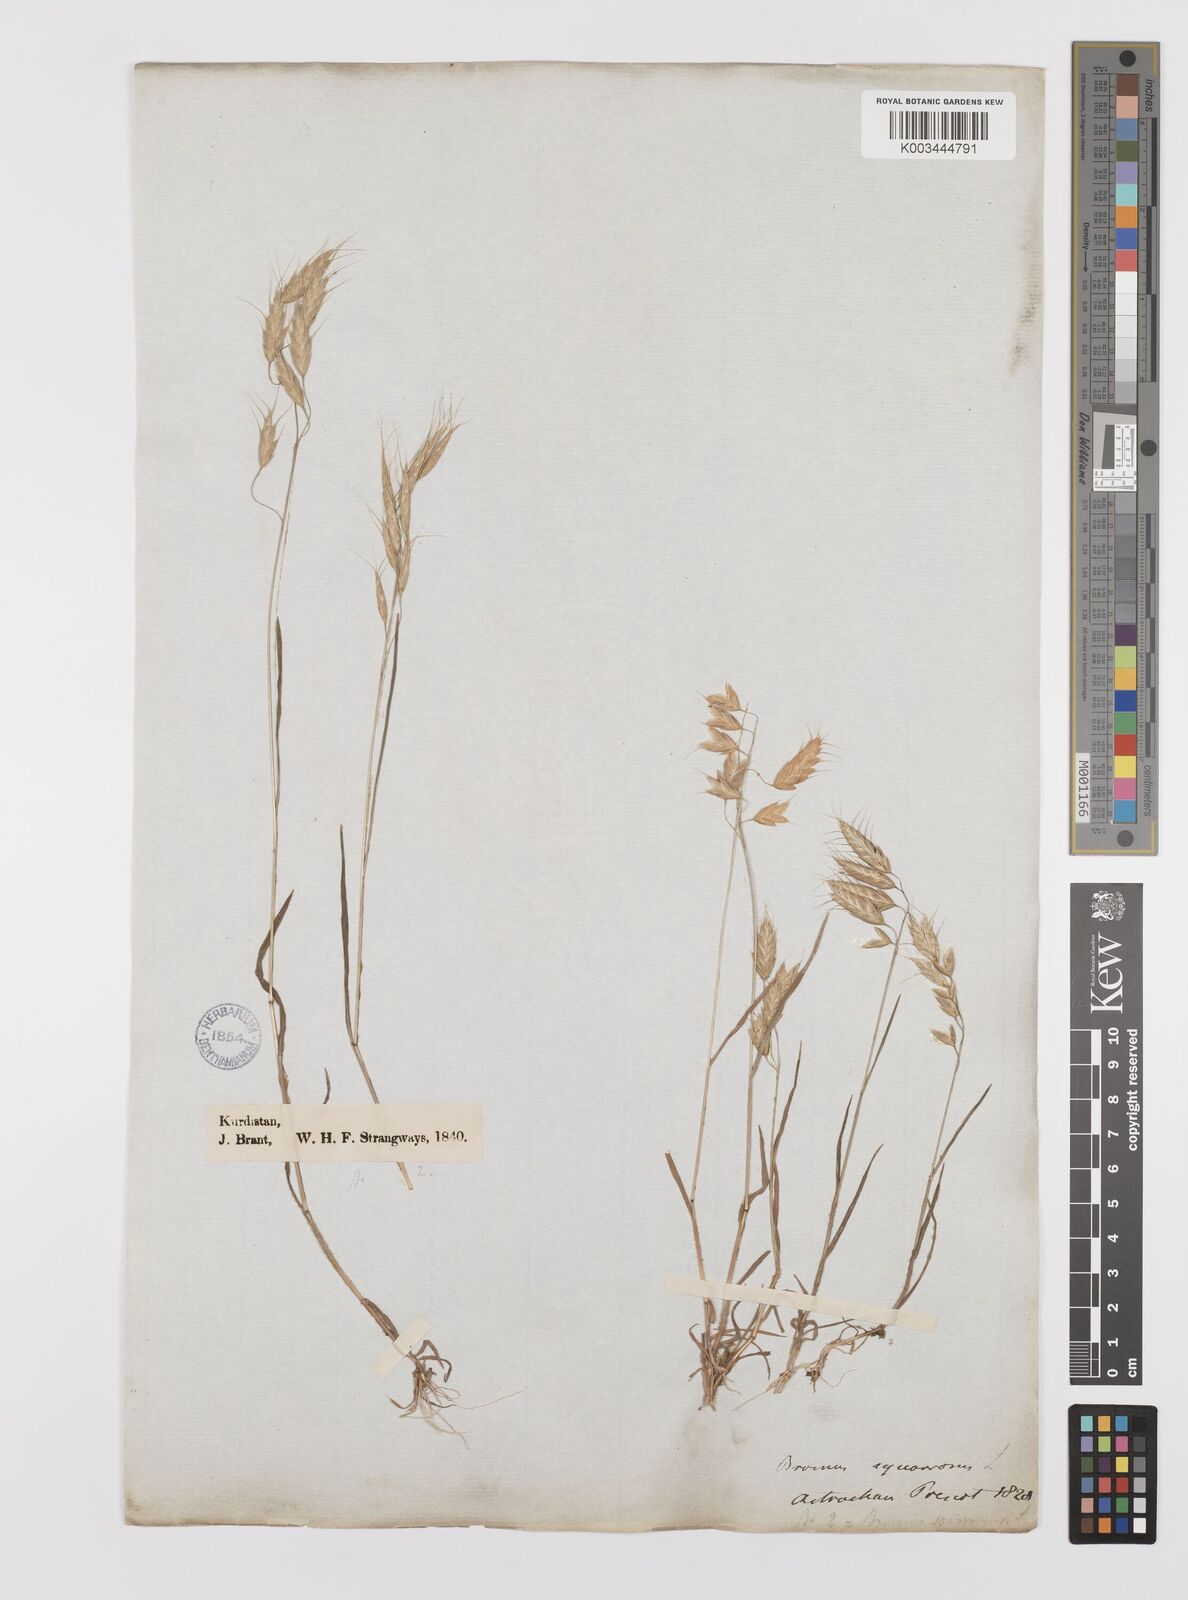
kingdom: Plantae
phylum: Tracheophyta
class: Liliopsida
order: Poales
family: Poaceae
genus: Bromus
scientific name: Bromus squarrosus
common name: Corn brome
